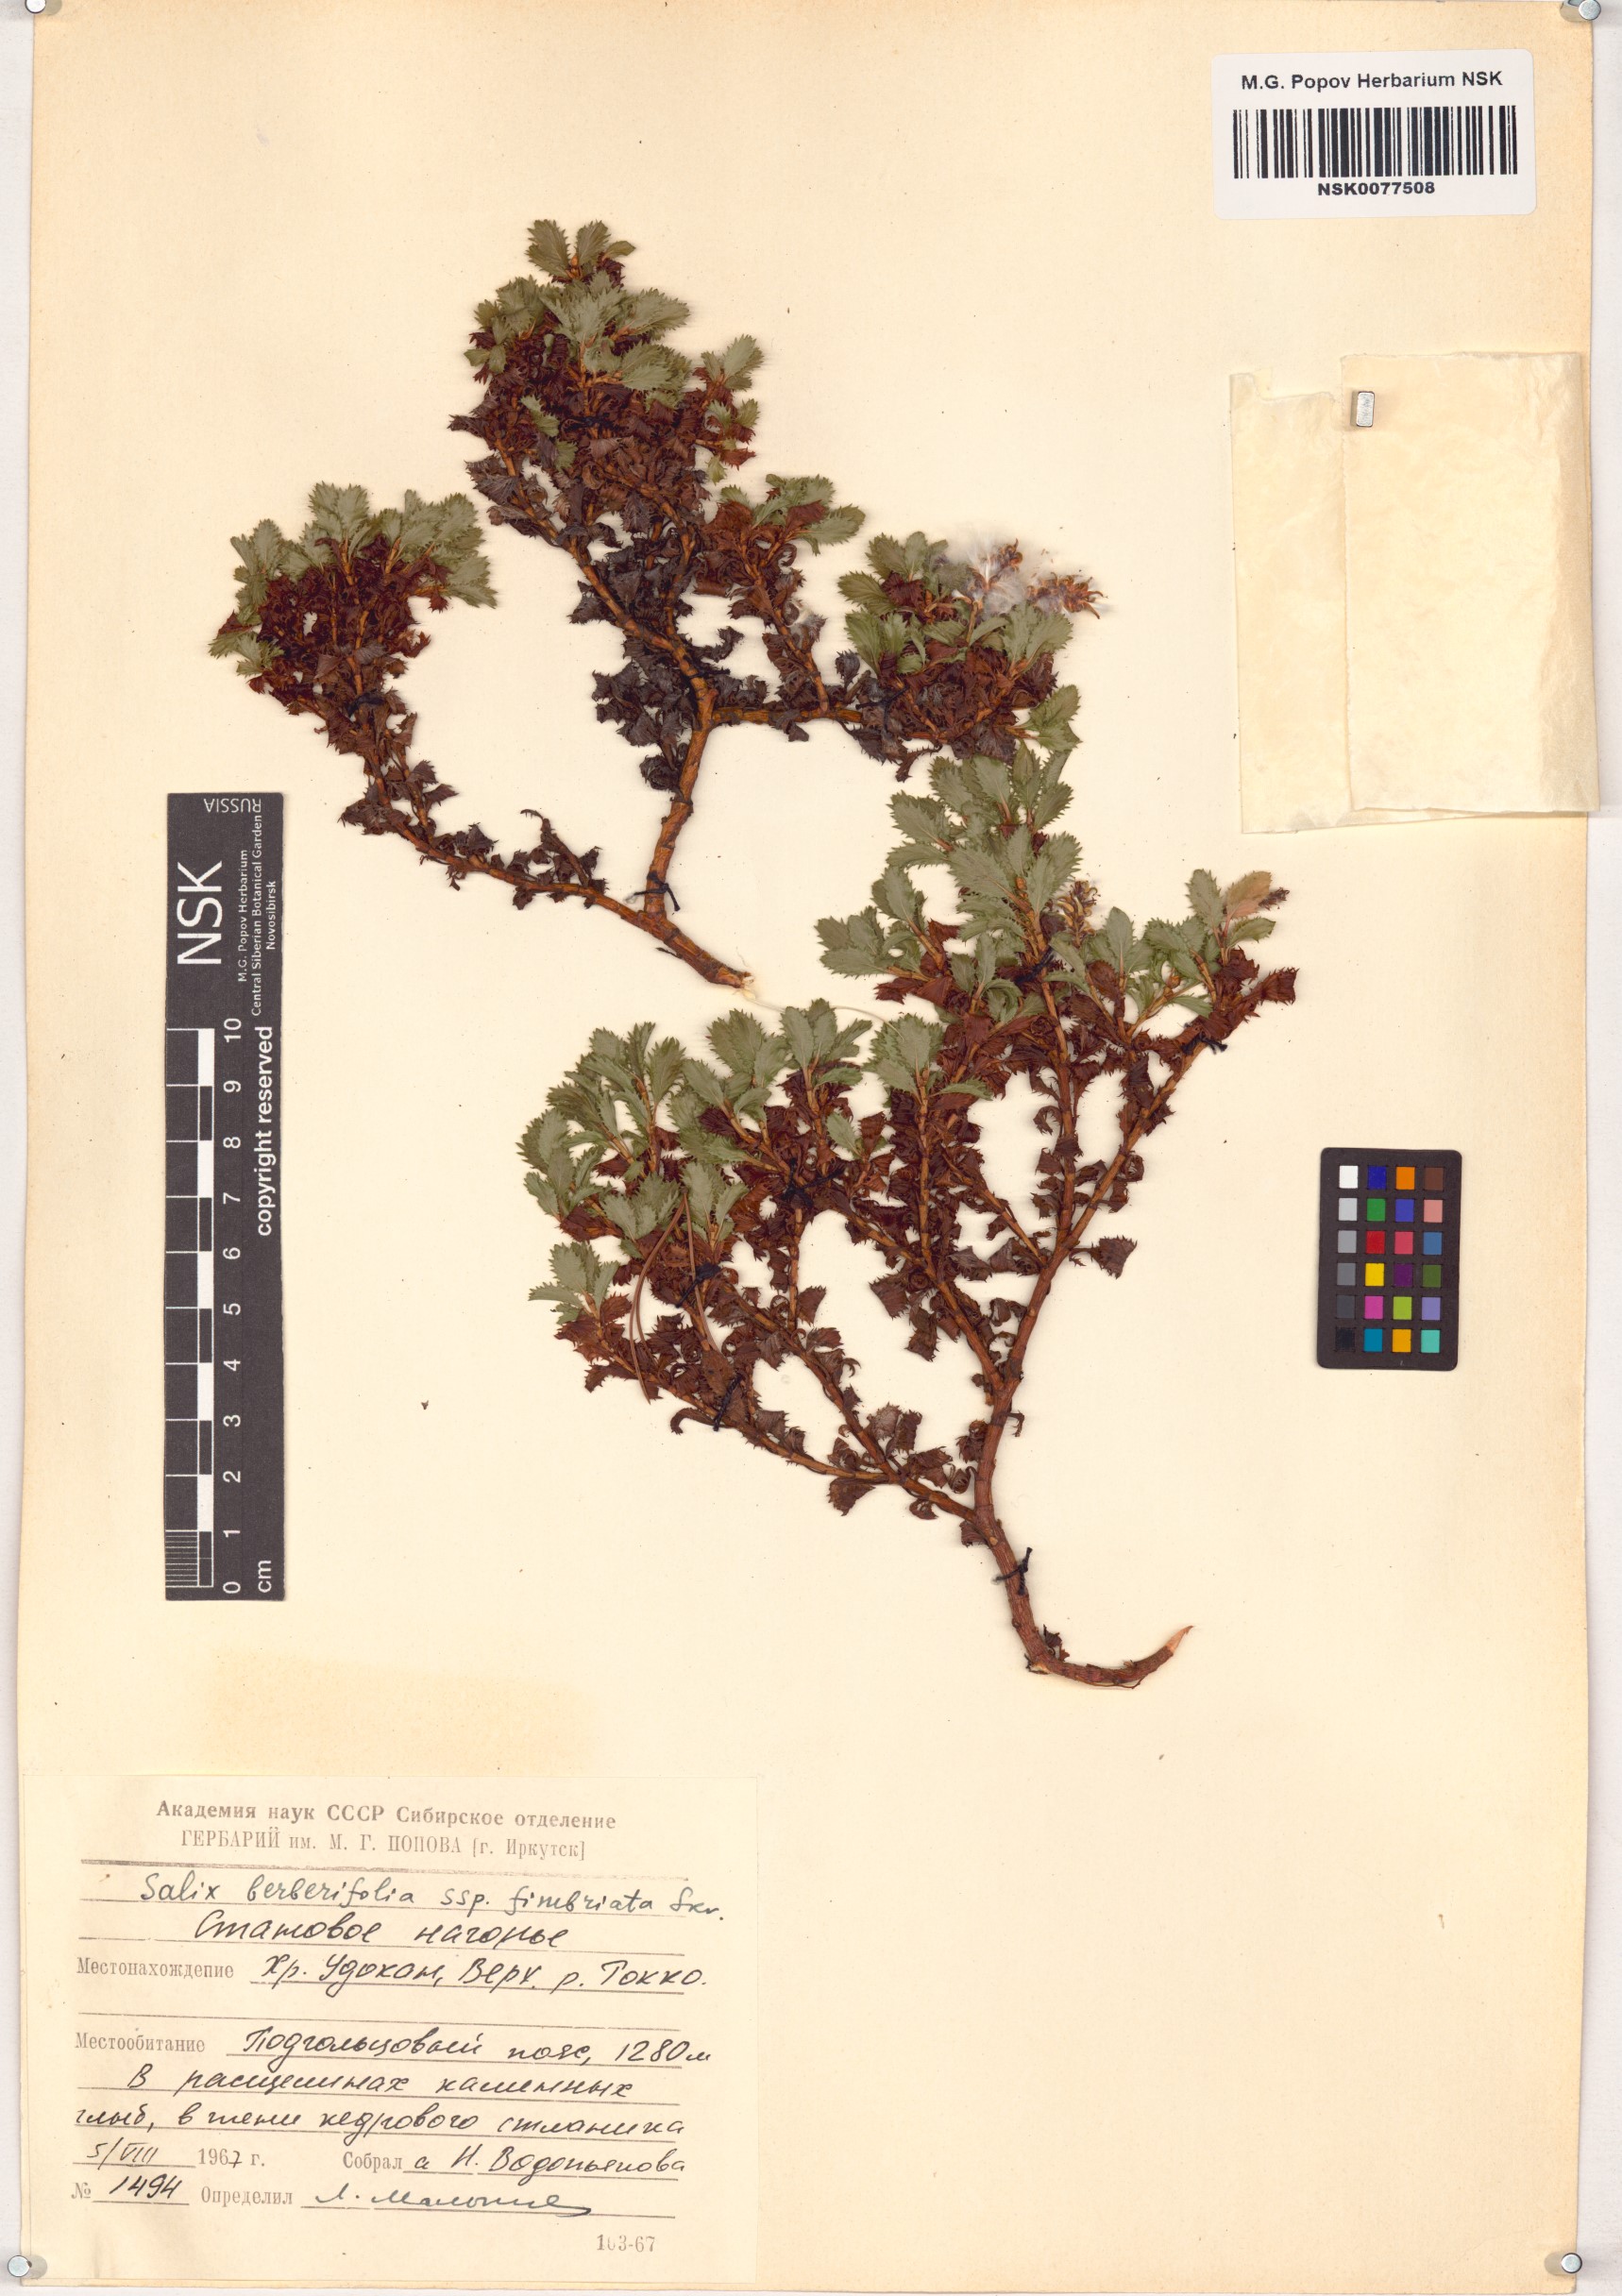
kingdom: Plantae
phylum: Tracheophyta
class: Magnoliopsida
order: Malpighiales
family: Salicaceae
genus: Salix
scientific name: Salix berberifolia
